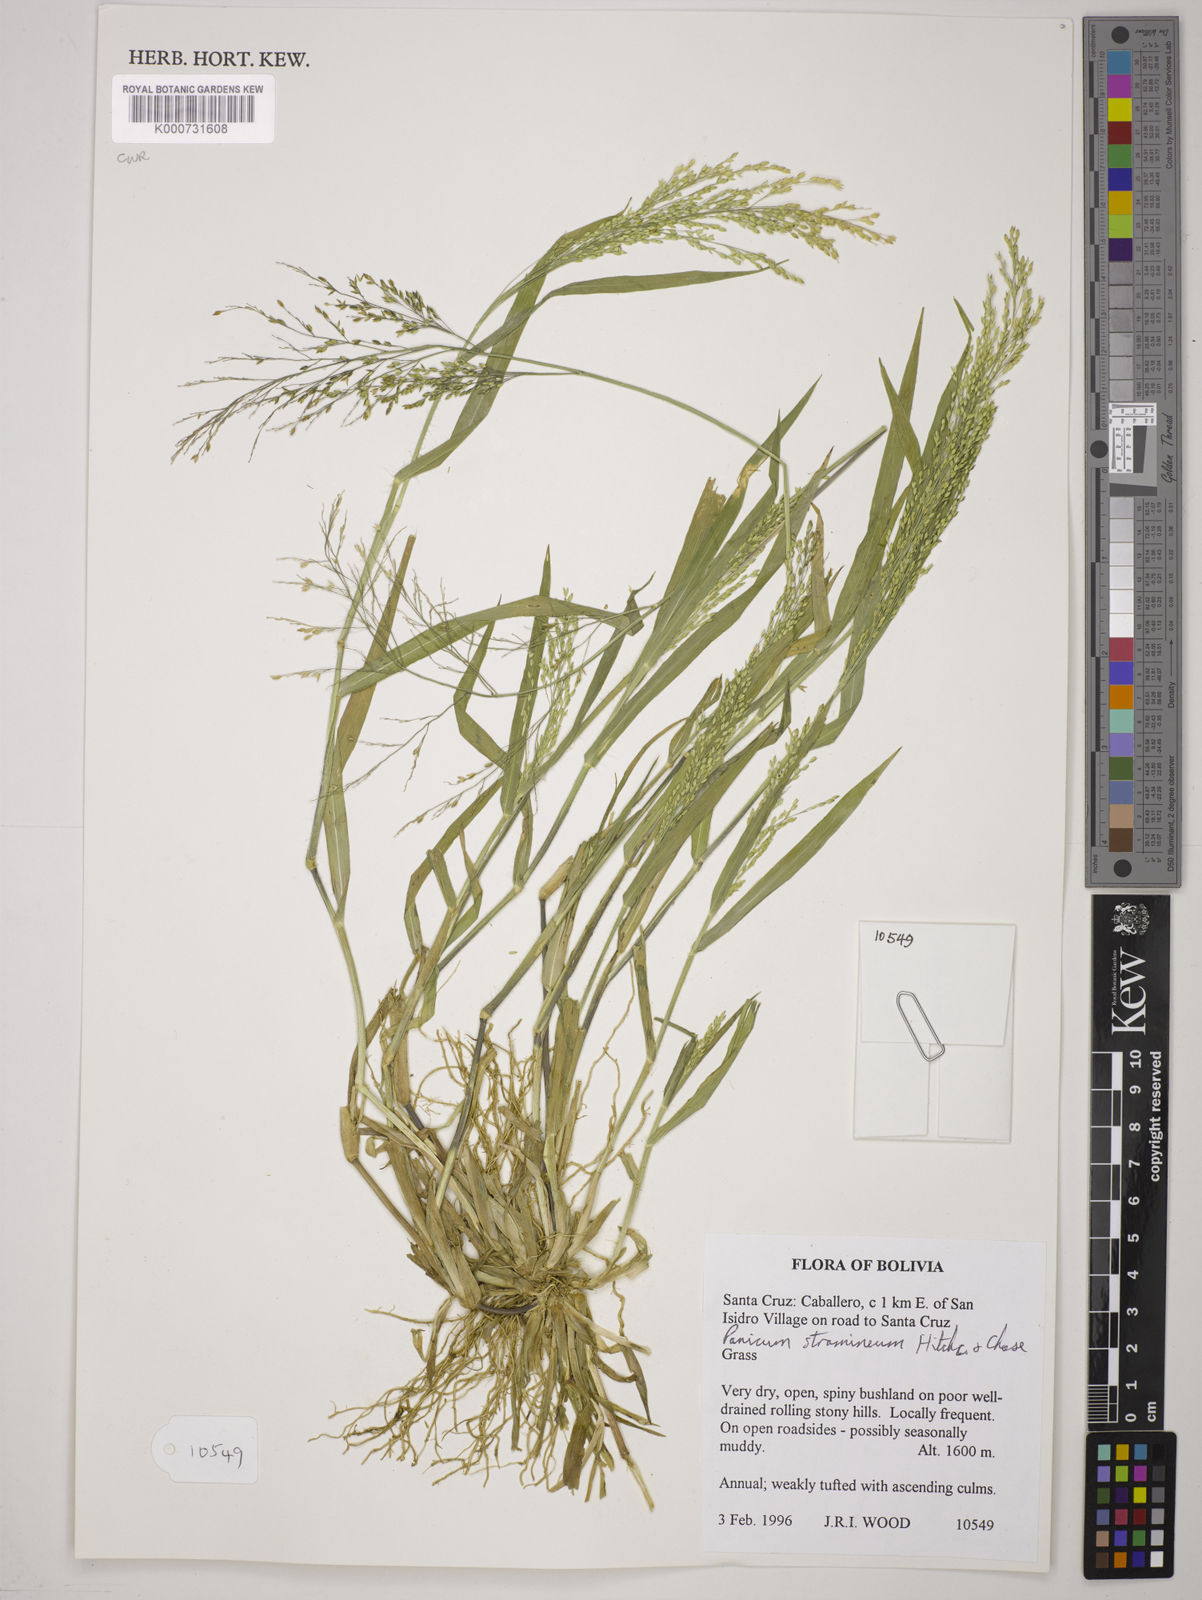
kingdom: Plantae
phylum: Tracheophyta
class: Liliopsida
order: Poales
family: Poaceae
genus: Panicum
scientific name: Panicum stramineum
